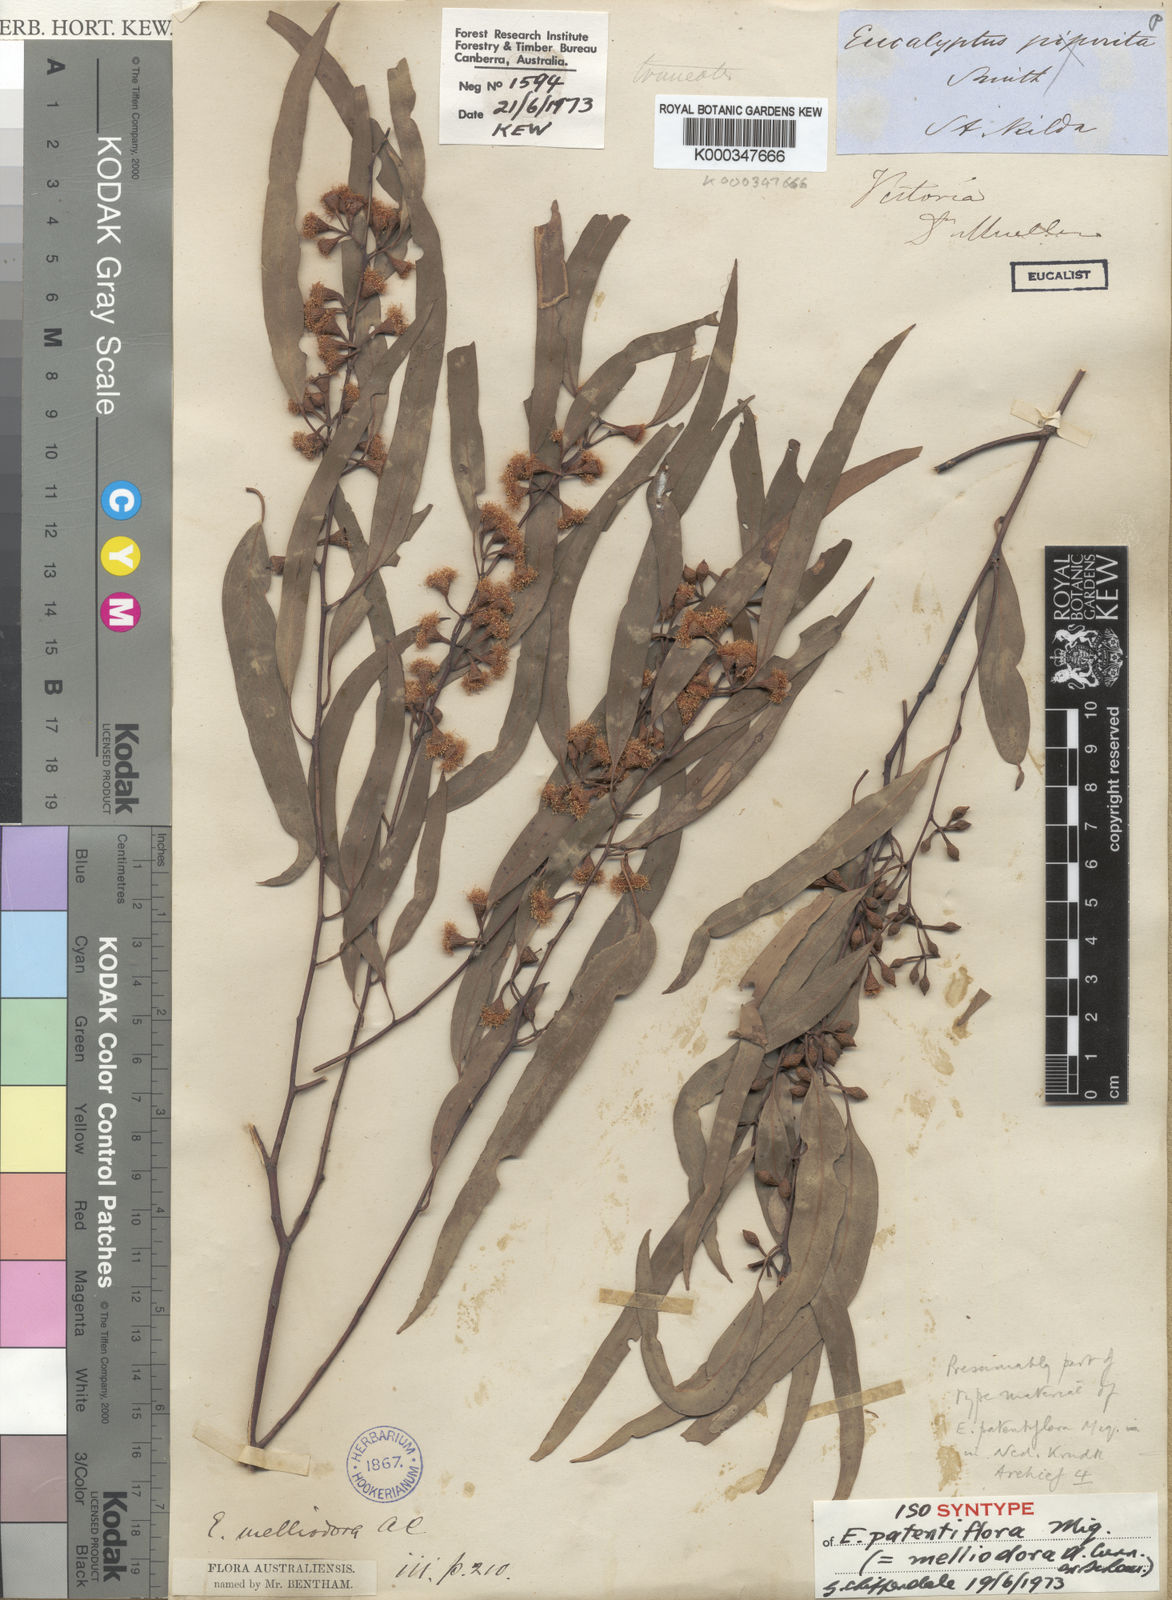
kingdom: Plantae
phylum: Tracheophyta
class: Magnoliopsida
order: Myrtales
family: Myrtaceae
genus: Eucalyptus
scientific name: Eucalyptus melliodora
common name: Yellow ironbox
